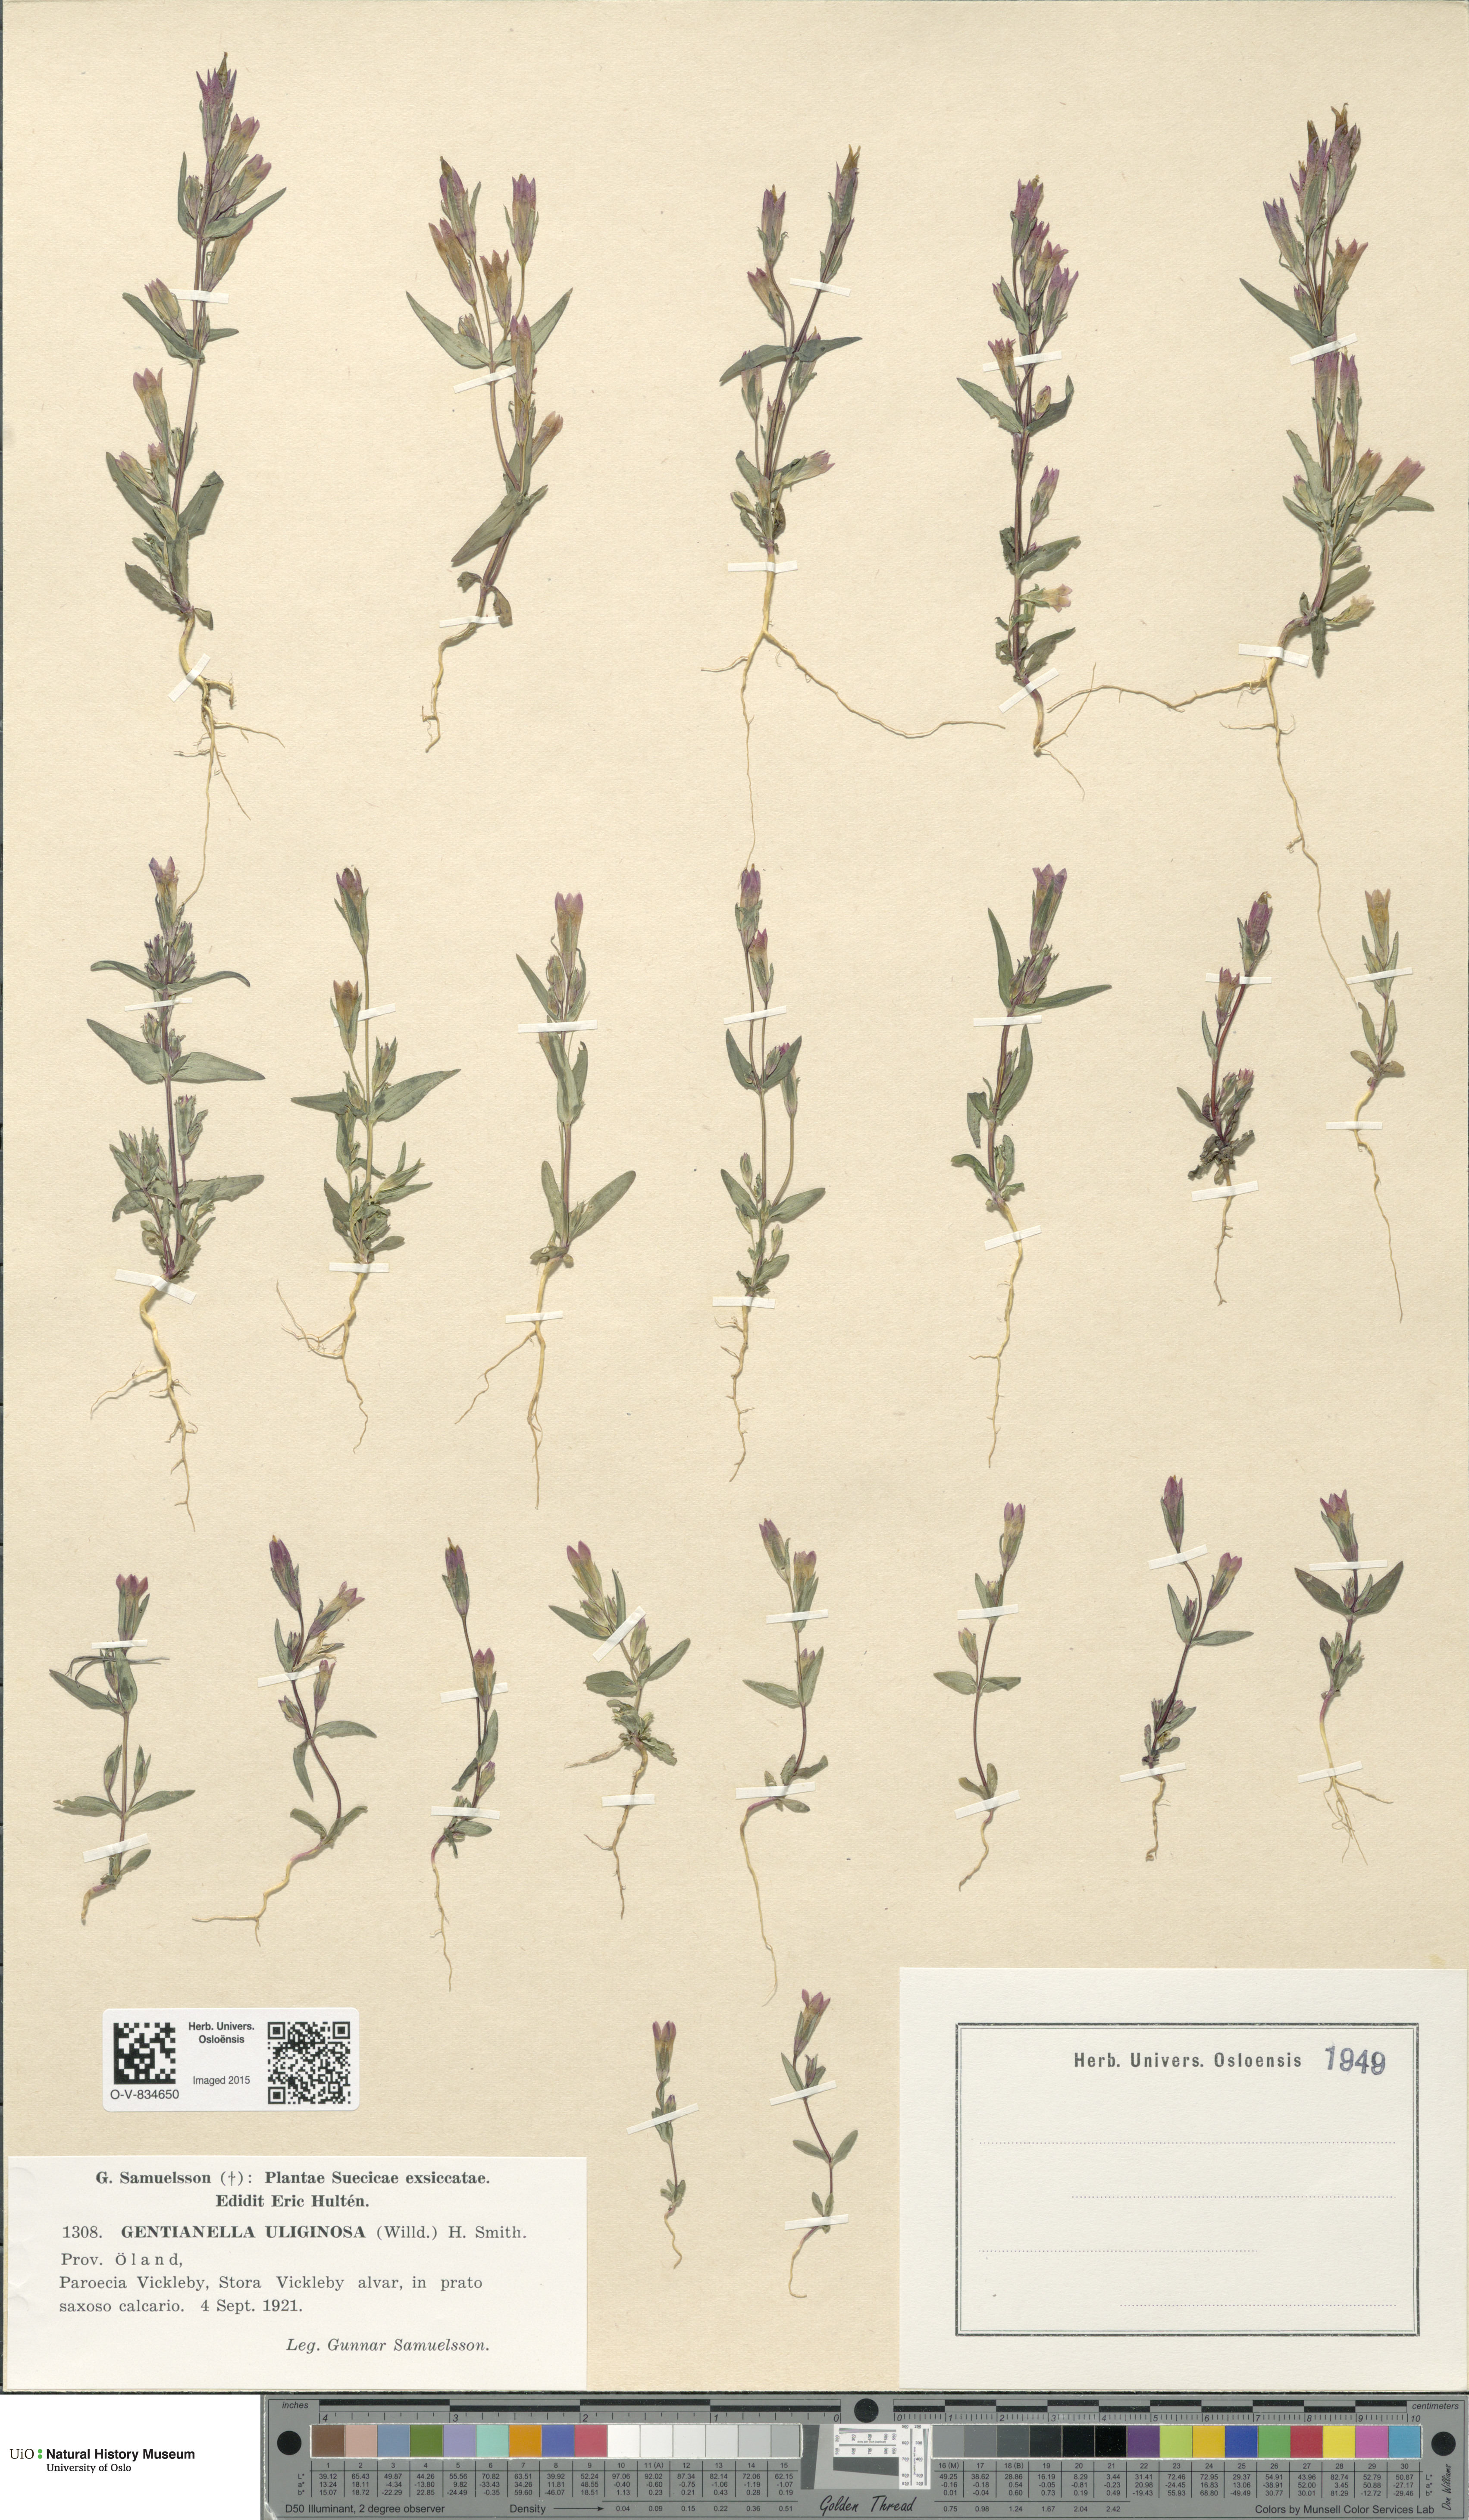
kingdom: Plantae
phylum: Tracheophyta
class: Magnoliopsida
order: Gentianales
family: Gentianaceae
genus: Gentianella
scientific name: Gentianella uliginosa
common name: Dune gentian
